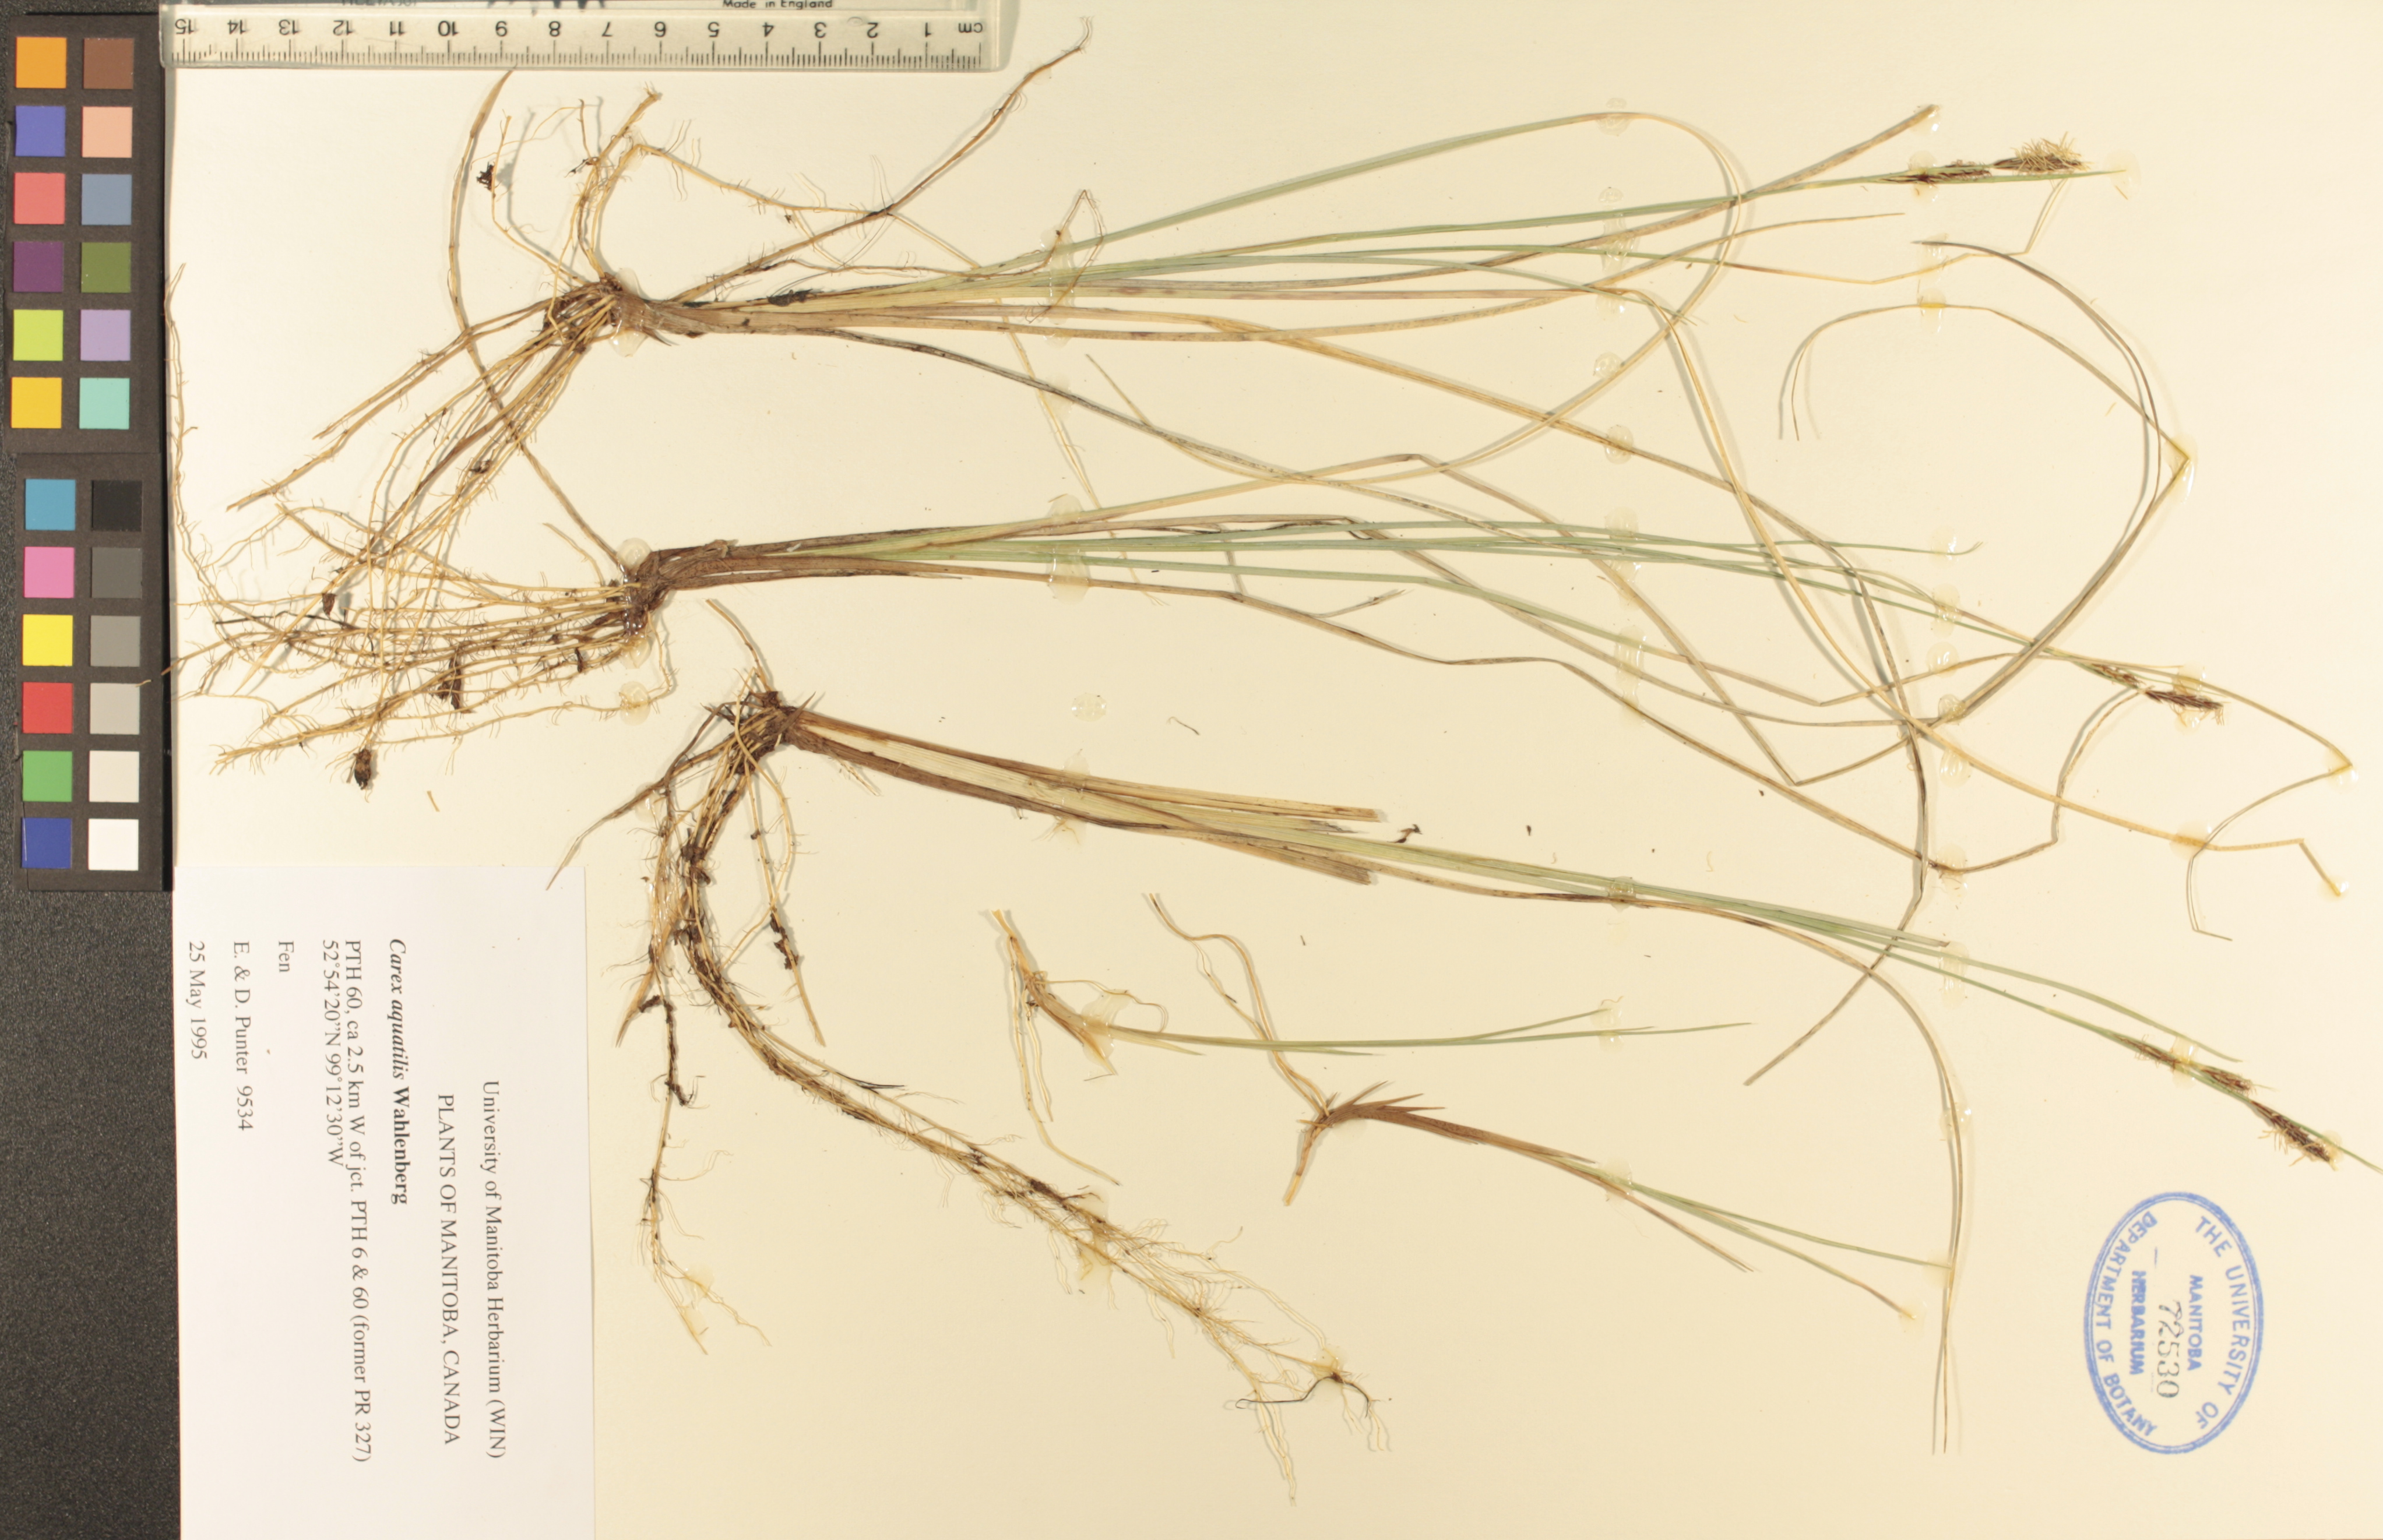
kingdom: Plantae
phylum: Tracheophyta
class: Liliopsida
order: Poales
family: Cyperaceae
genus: Carex
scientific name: Carex aquatilis
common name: Water sedge
